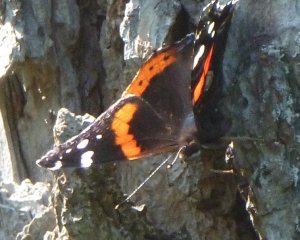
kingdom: Animalia
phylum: Arthropoda
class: Insecta
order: Lepidoptera
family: Nymphalidae
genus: Vanessa
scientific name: Vanessa atalanta
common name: Red Admiral
